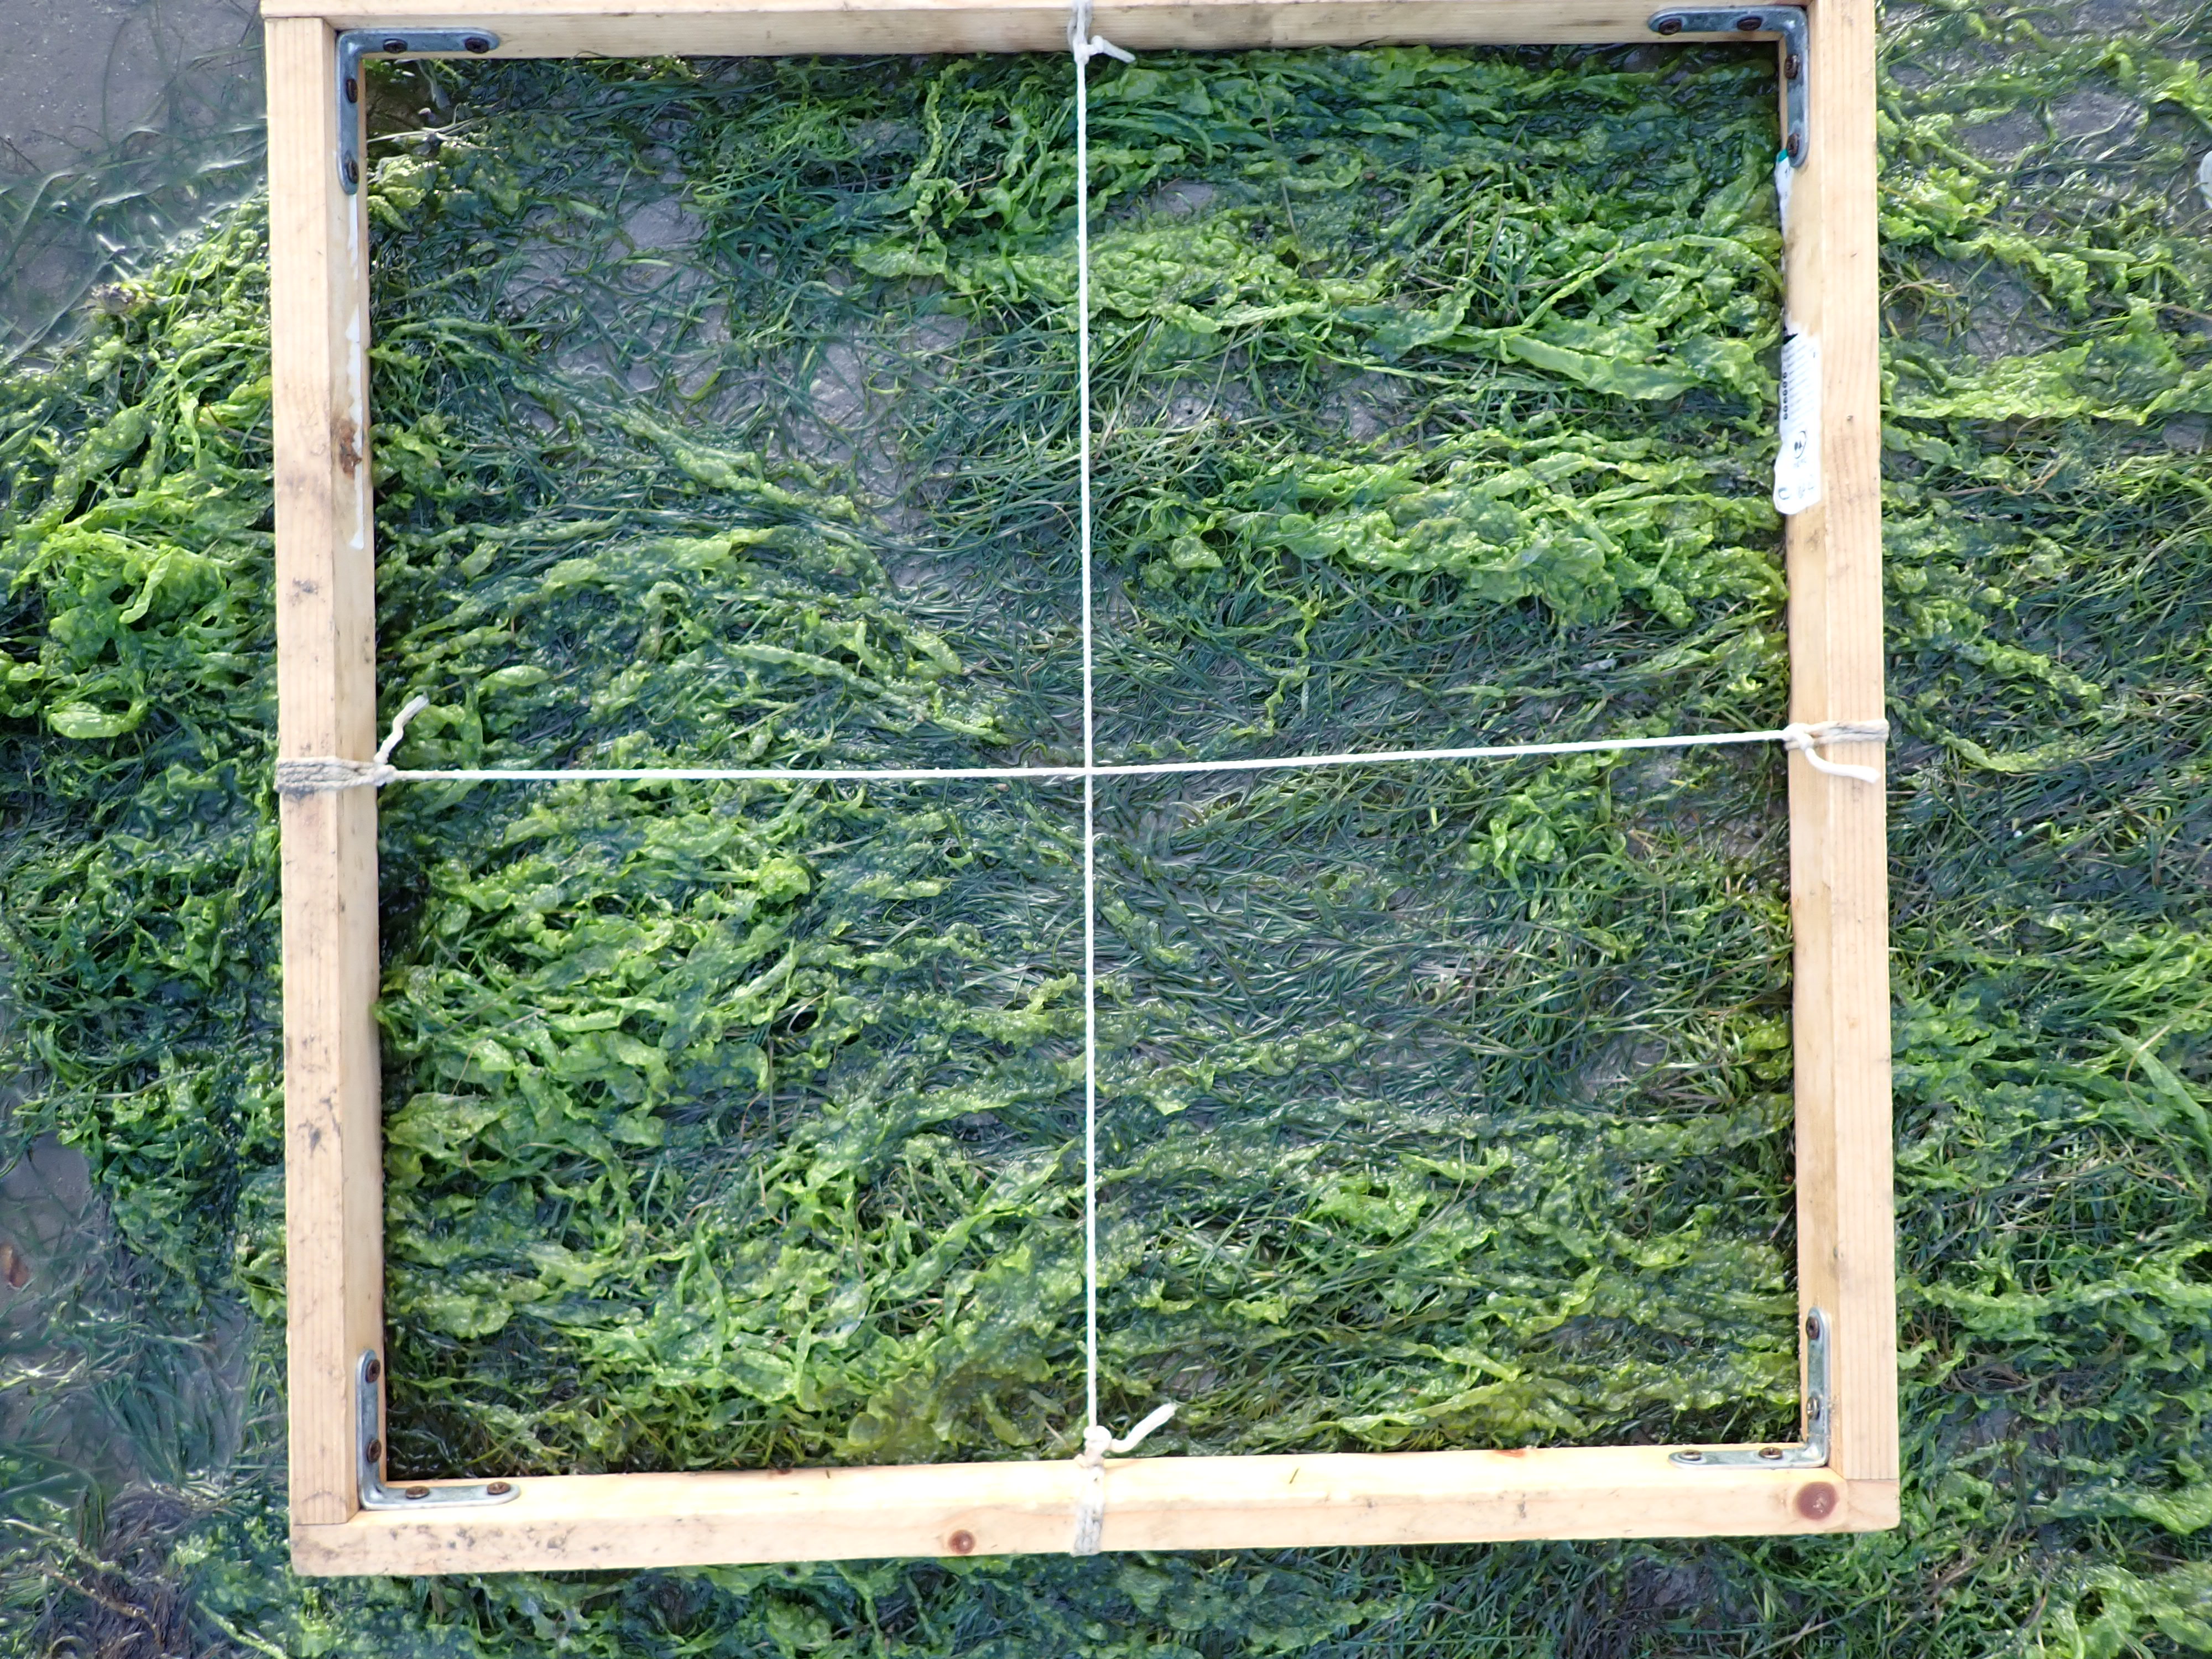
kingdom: Plantae
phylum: Chlorophyta
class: Ulvophyceae
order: Ulvales
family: Ulvaceae
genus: Ulva
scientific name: Ulva
